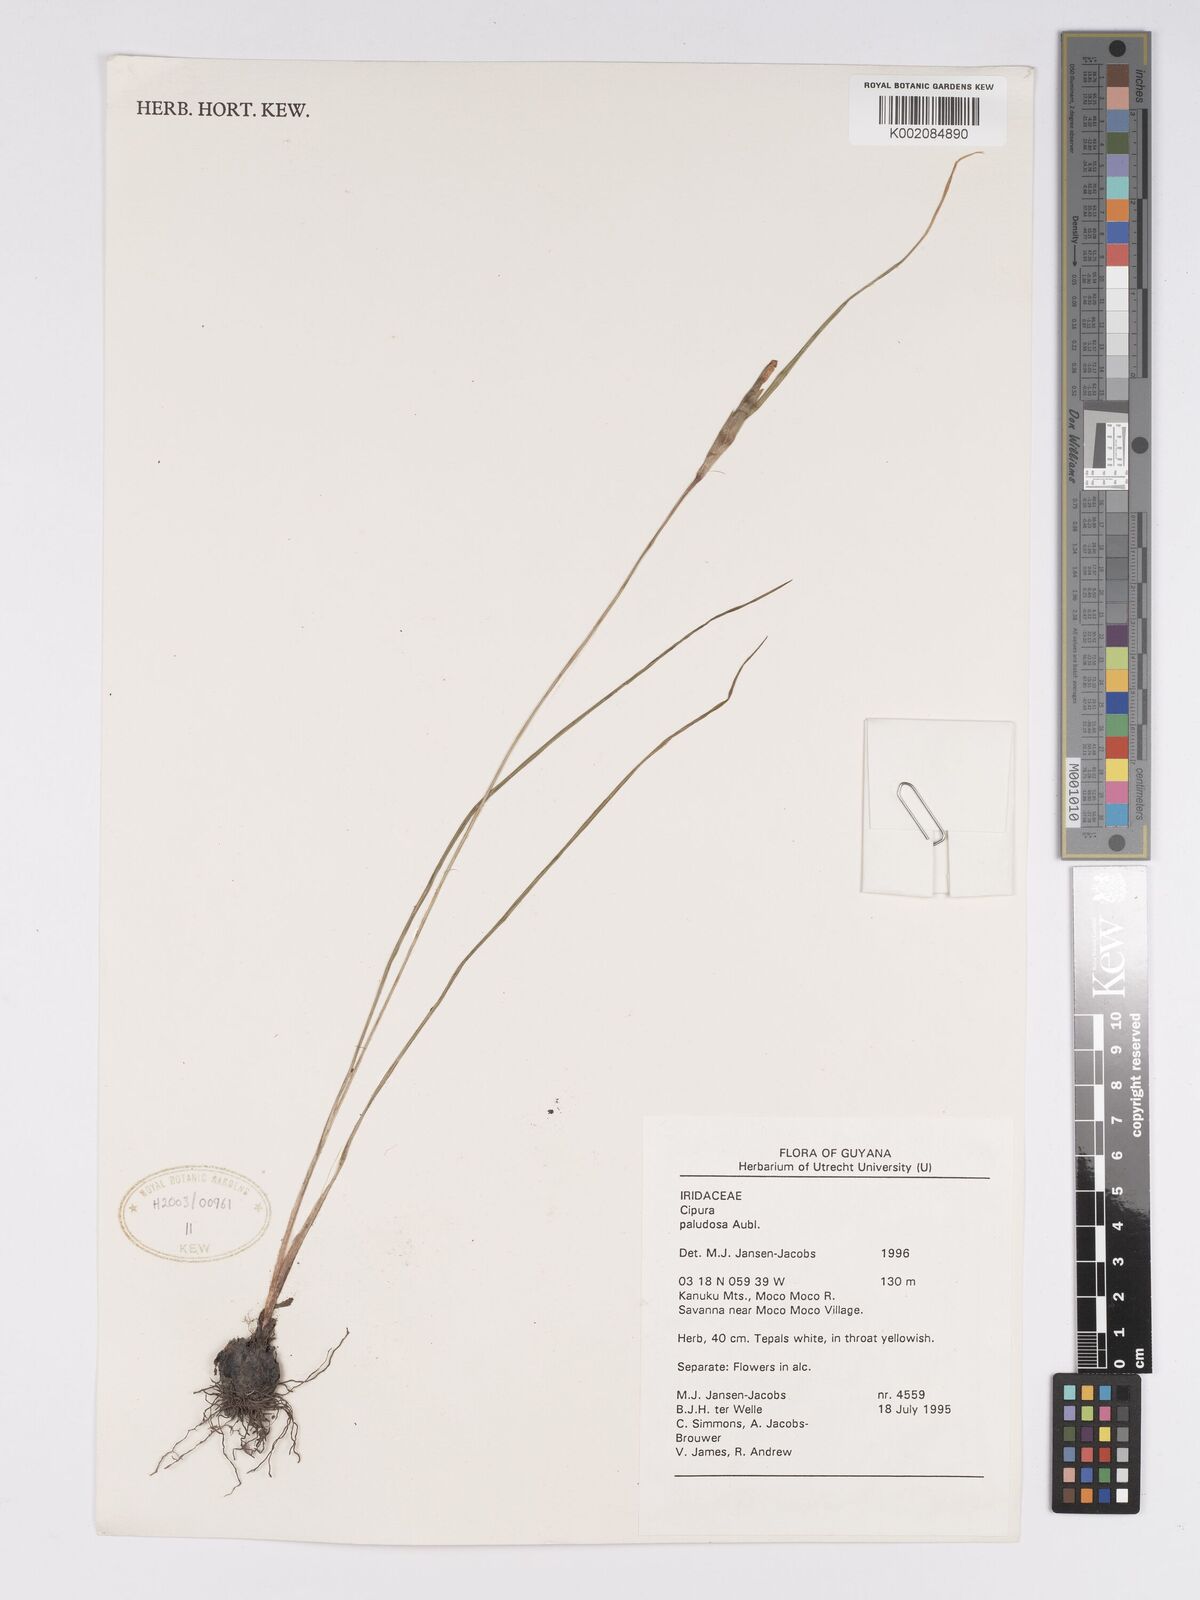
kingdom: Plantae
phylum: Tracheophyta
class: Liliopsida
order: Asparagales
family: Iridaceae
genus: Cipura
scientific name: Cipura paludosa
